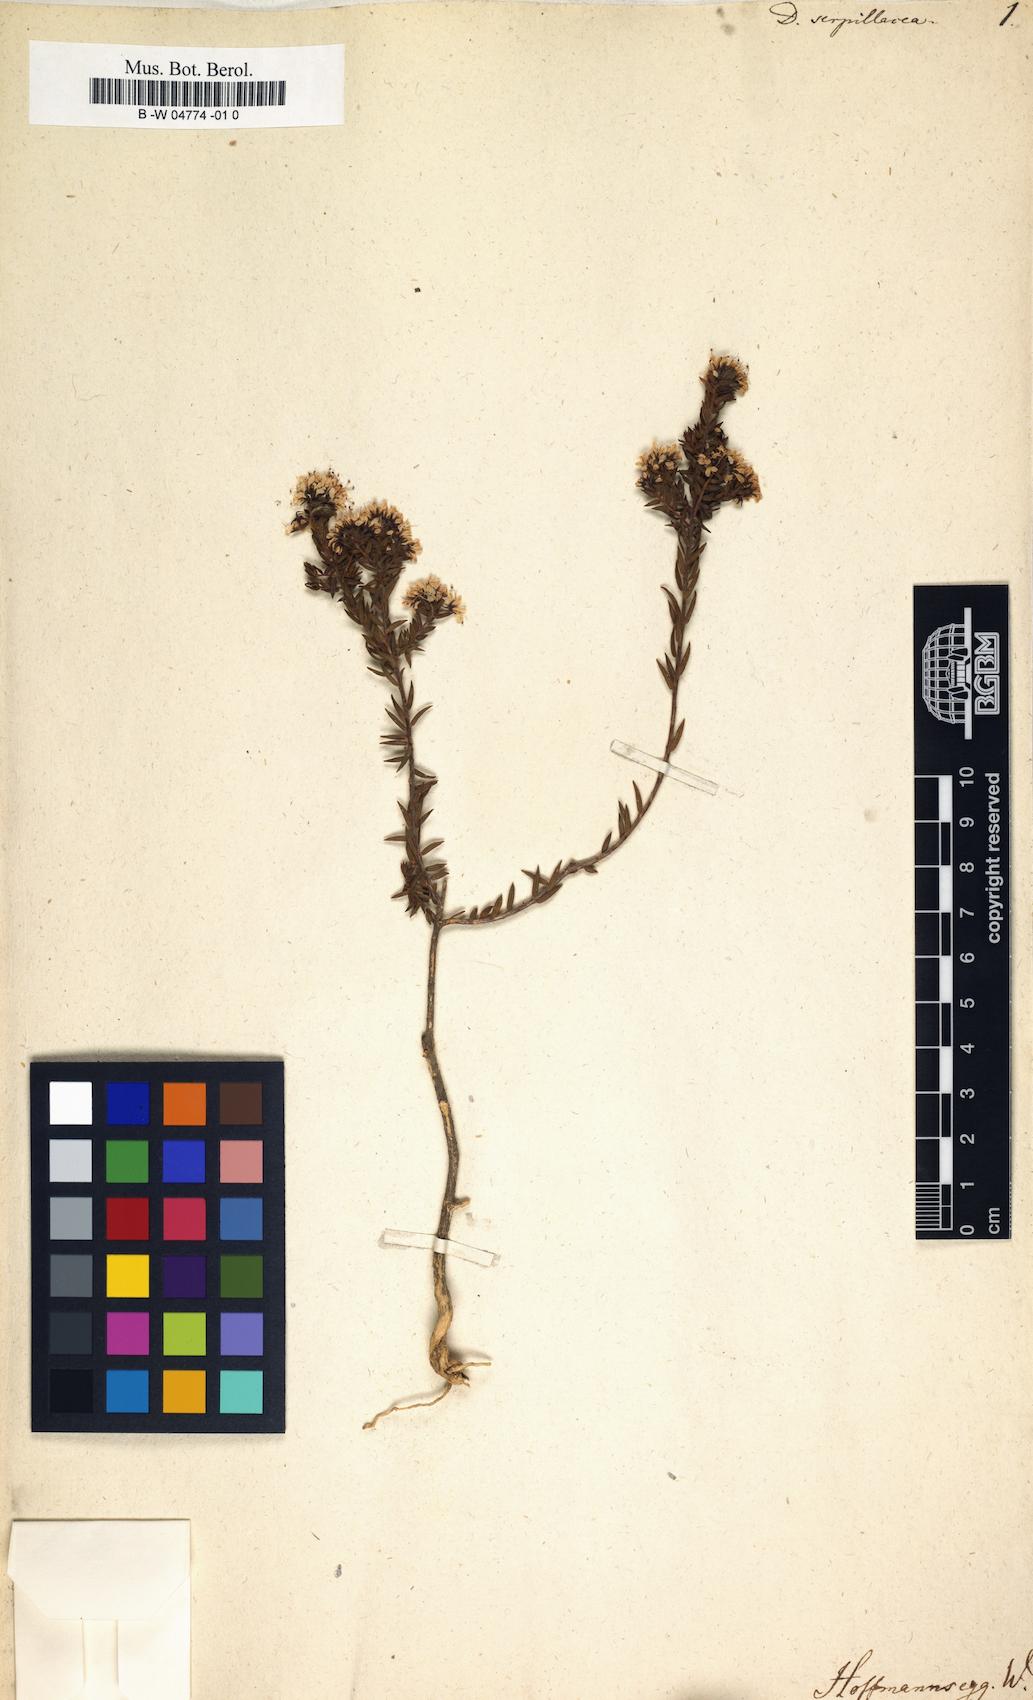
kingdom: Plantae
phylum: Tracheophyta
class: Magnoliopsida
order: Sapindales
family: Rutaceae
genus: Agathosma
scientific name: Agathosma serpyllacea
